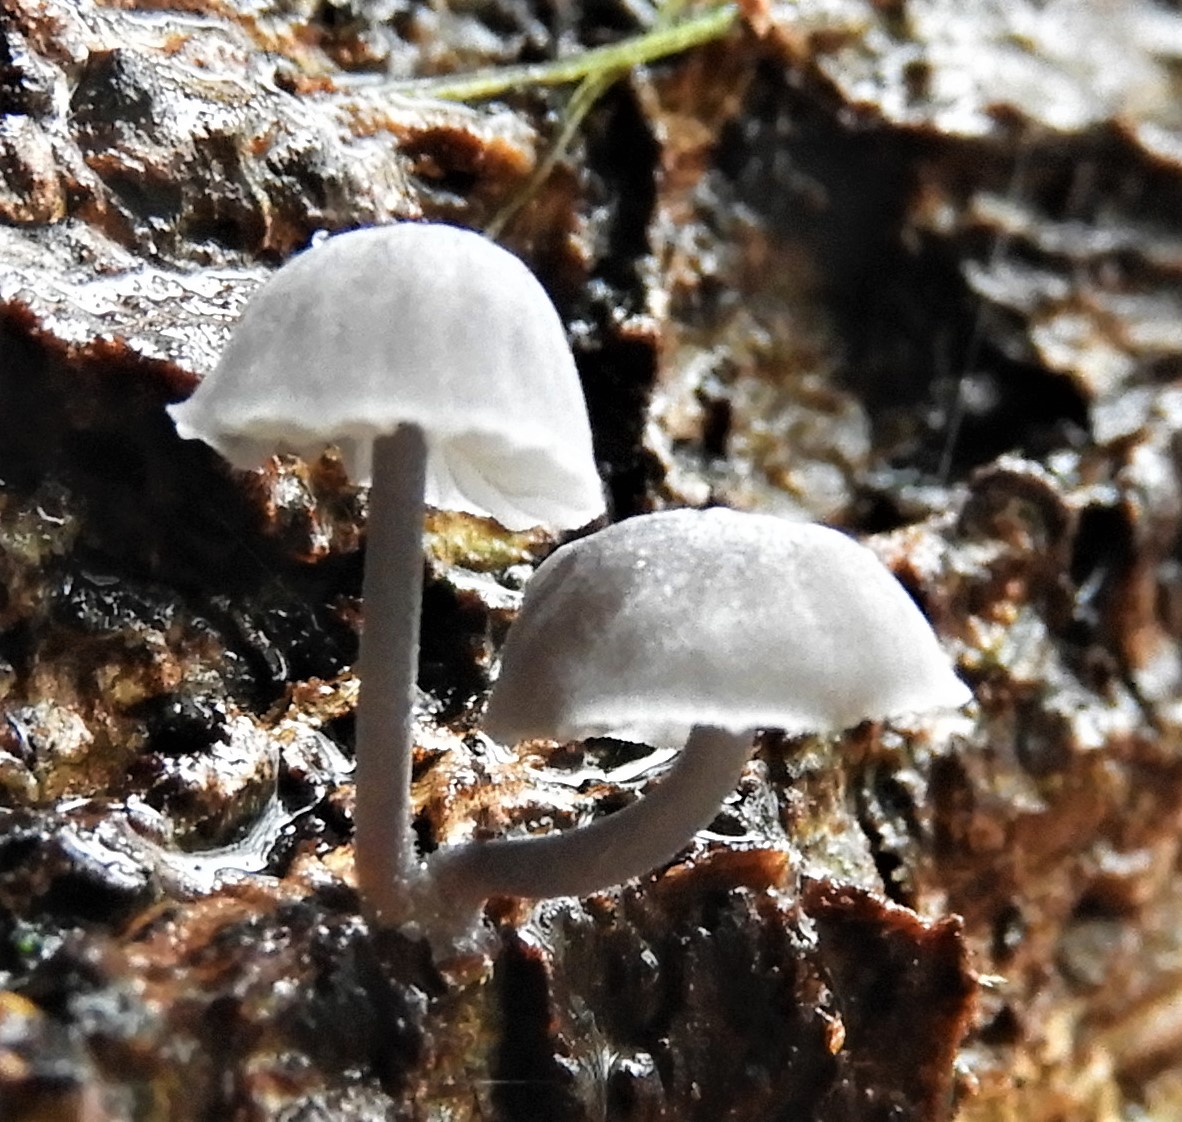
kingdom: Fungi
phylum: Basidiomycota
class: Agaricomycetes
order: Agaricales
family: Mycenaceae
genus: Mycena
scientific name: Mycena pseudocorticola
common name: gråblå bark-huesvamp
